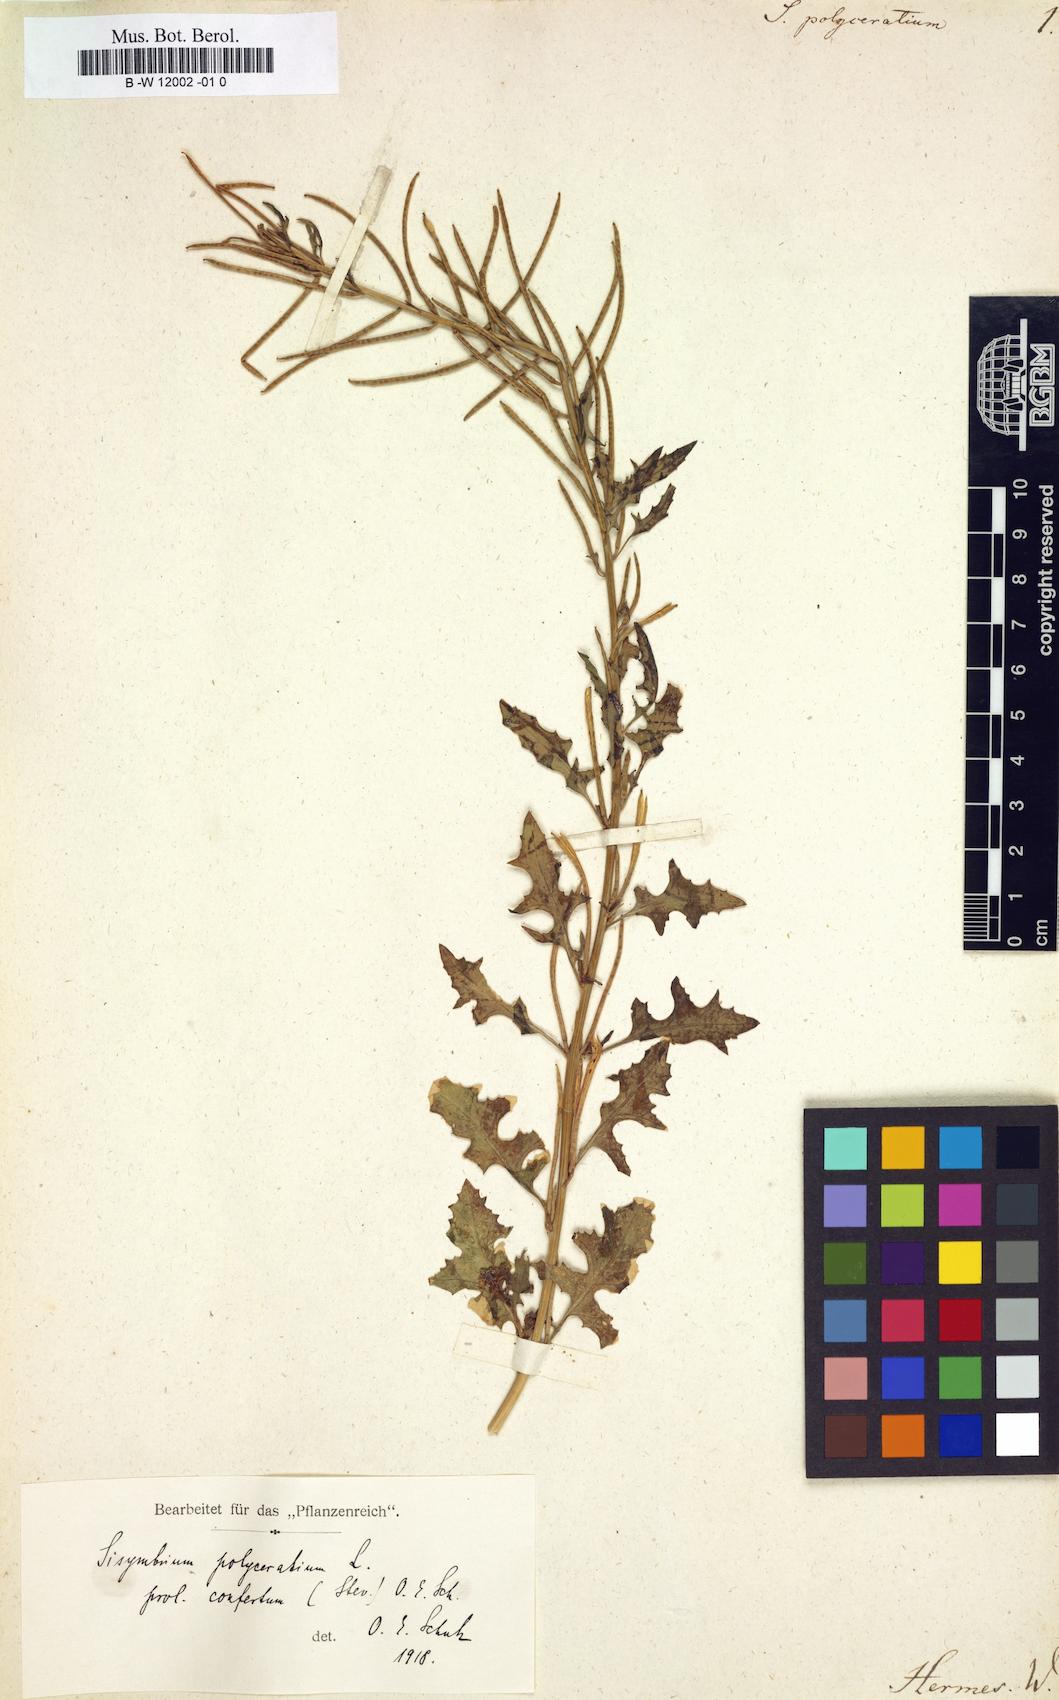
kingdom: Plantae
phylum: Tracheophyta
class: Magnoliopsida
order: Brassicales
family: Brassicaceae
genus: Sisymbrium
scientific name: Sisymbrium polyceratium
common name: Shortfruit hedgemustard
